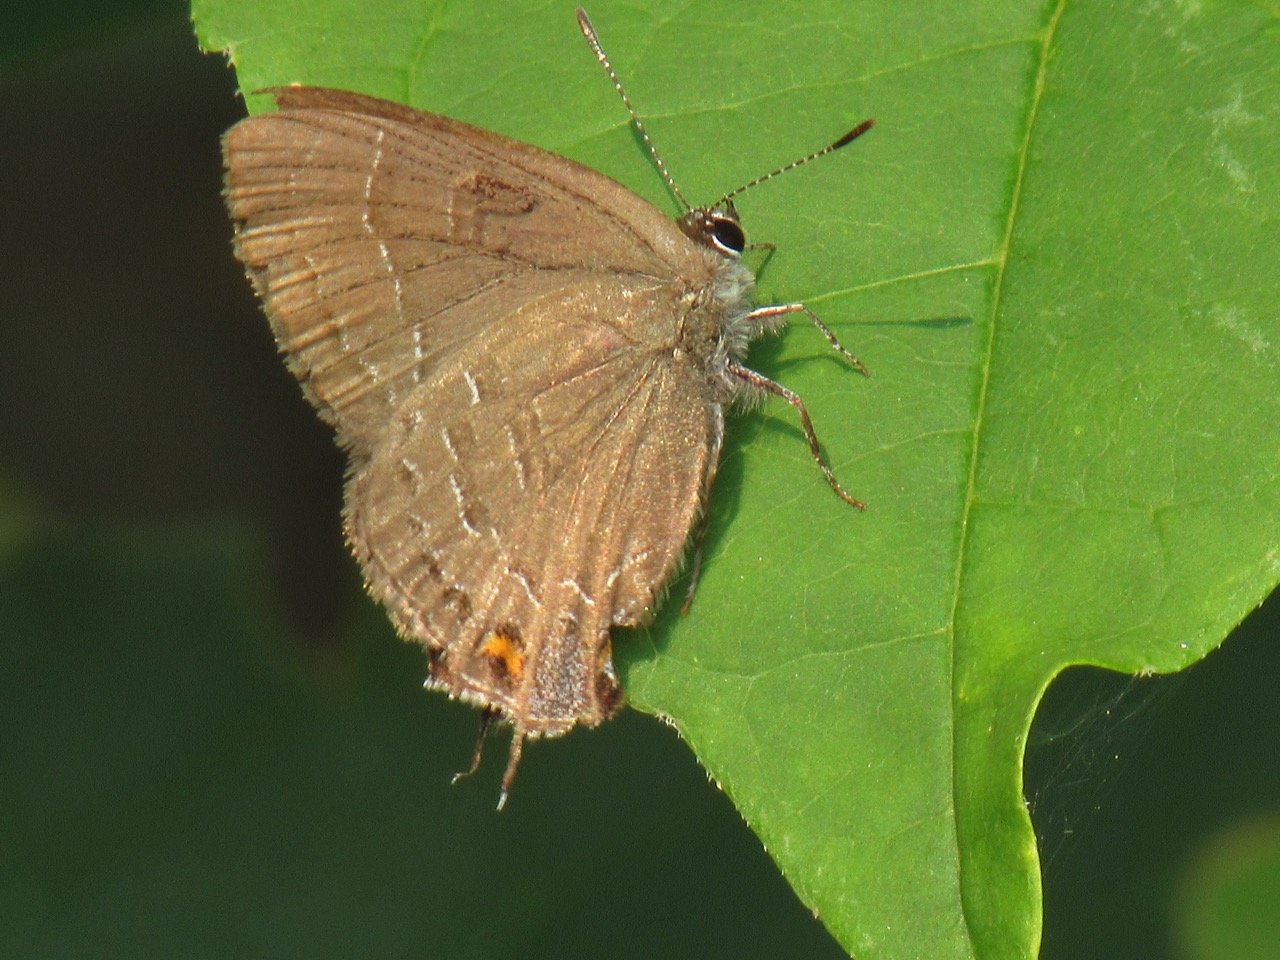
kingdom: Animalia
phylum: Arthropoda
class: Insecta
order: Lepidoptera
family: Lycaenidae
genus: Satyrium
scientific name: Satyrium calanus
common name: Banded Hairstreak
